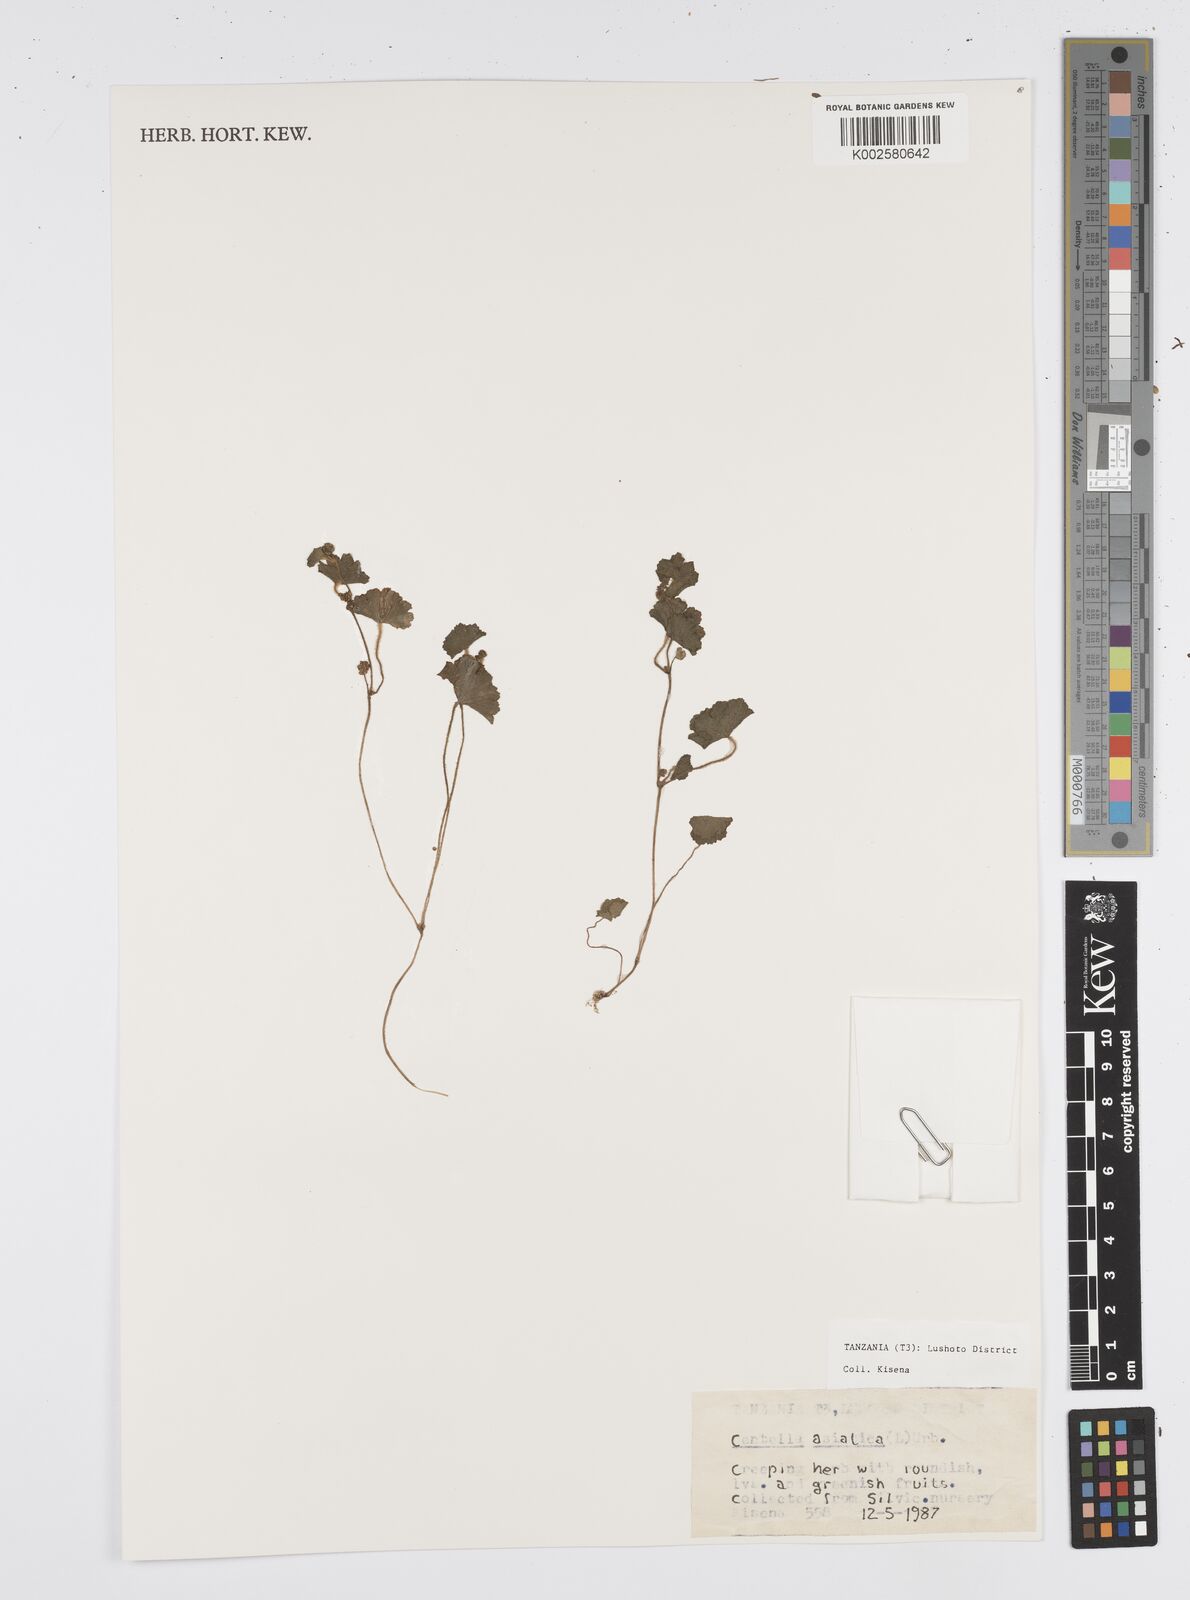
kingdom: Plantae
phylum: Tracheophyta
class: Magnoliopsida
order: Apiales
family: Apiaceae
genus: Centella
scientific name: Centella asiatica
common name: Spadeleaf
